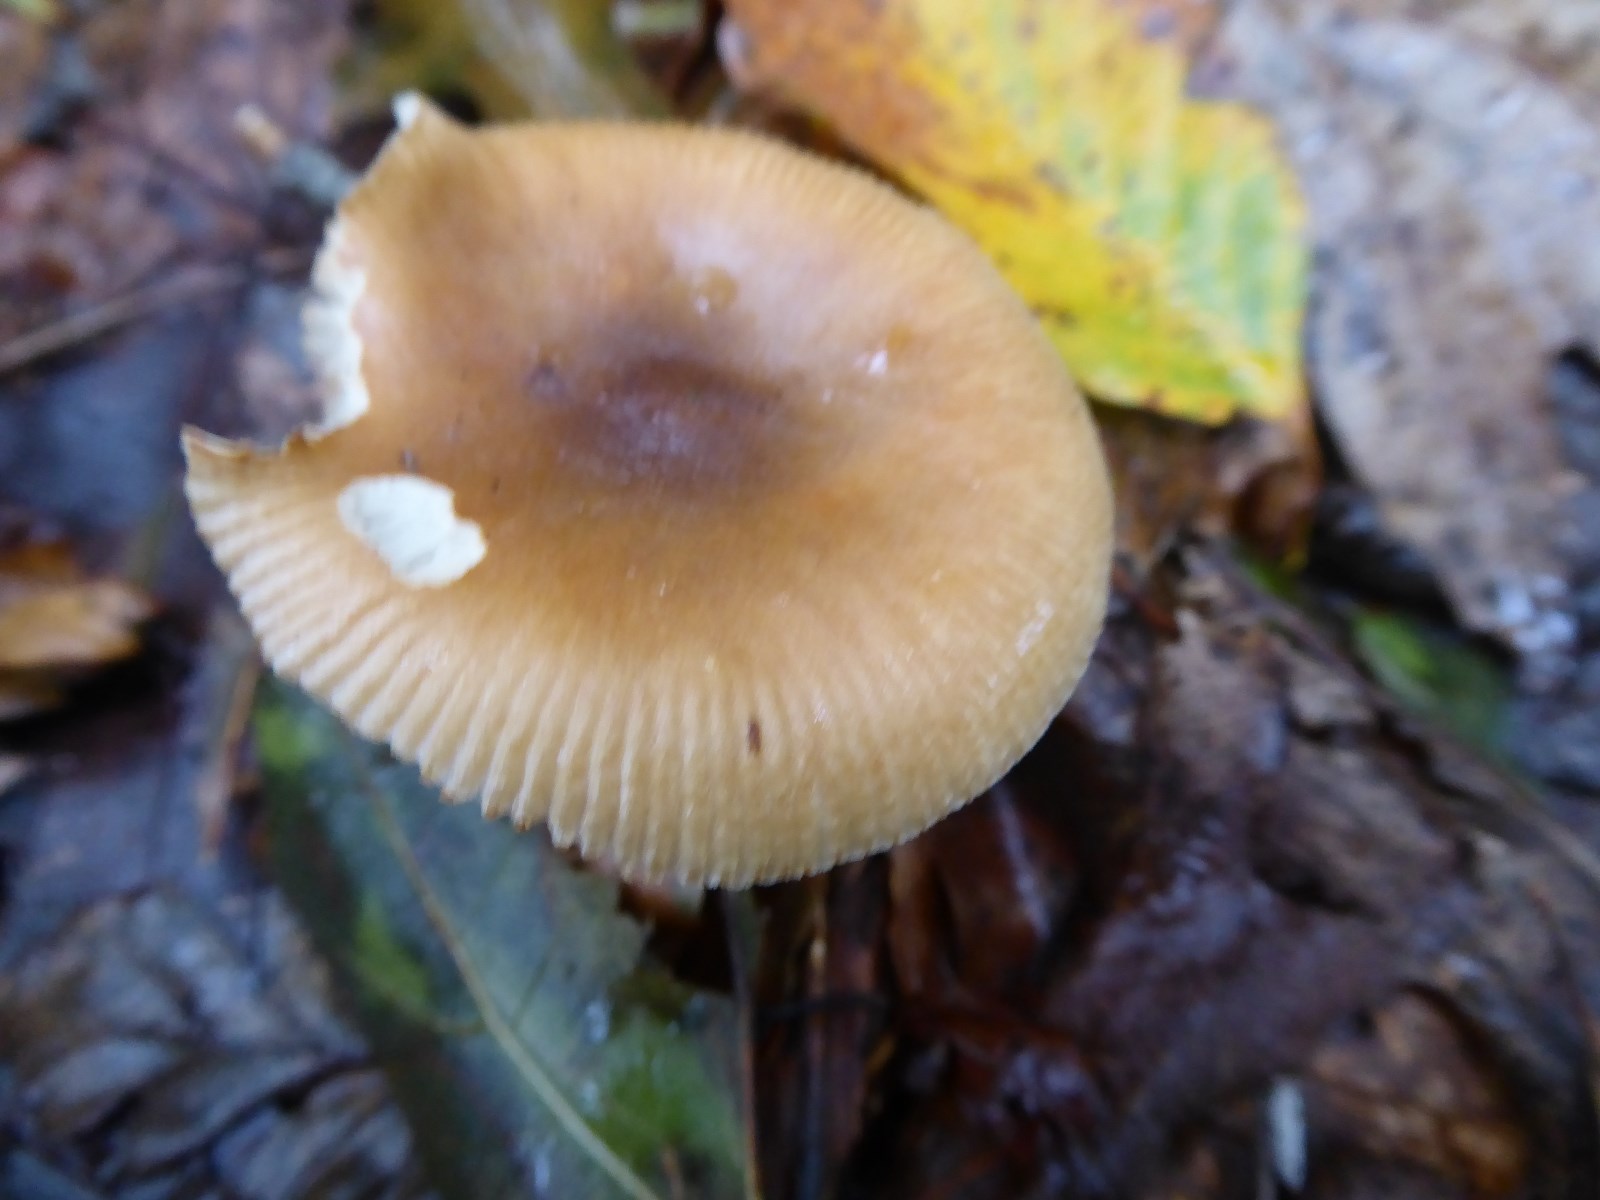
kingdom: Fungi
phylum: Basidiomycota
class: Agaricomycetes
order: Agaricales
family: Amanitaceae
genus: Amanita
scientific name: Amanita fulva
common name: brun kam-fluesvamp
